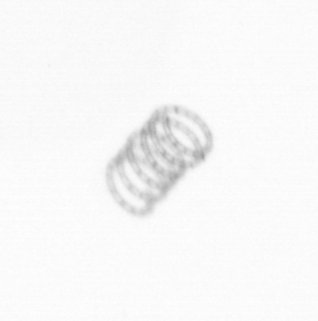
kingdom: Chromista
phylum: Ochrophyta
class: Bacillariophyceae
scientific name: Bacillariophyceae
